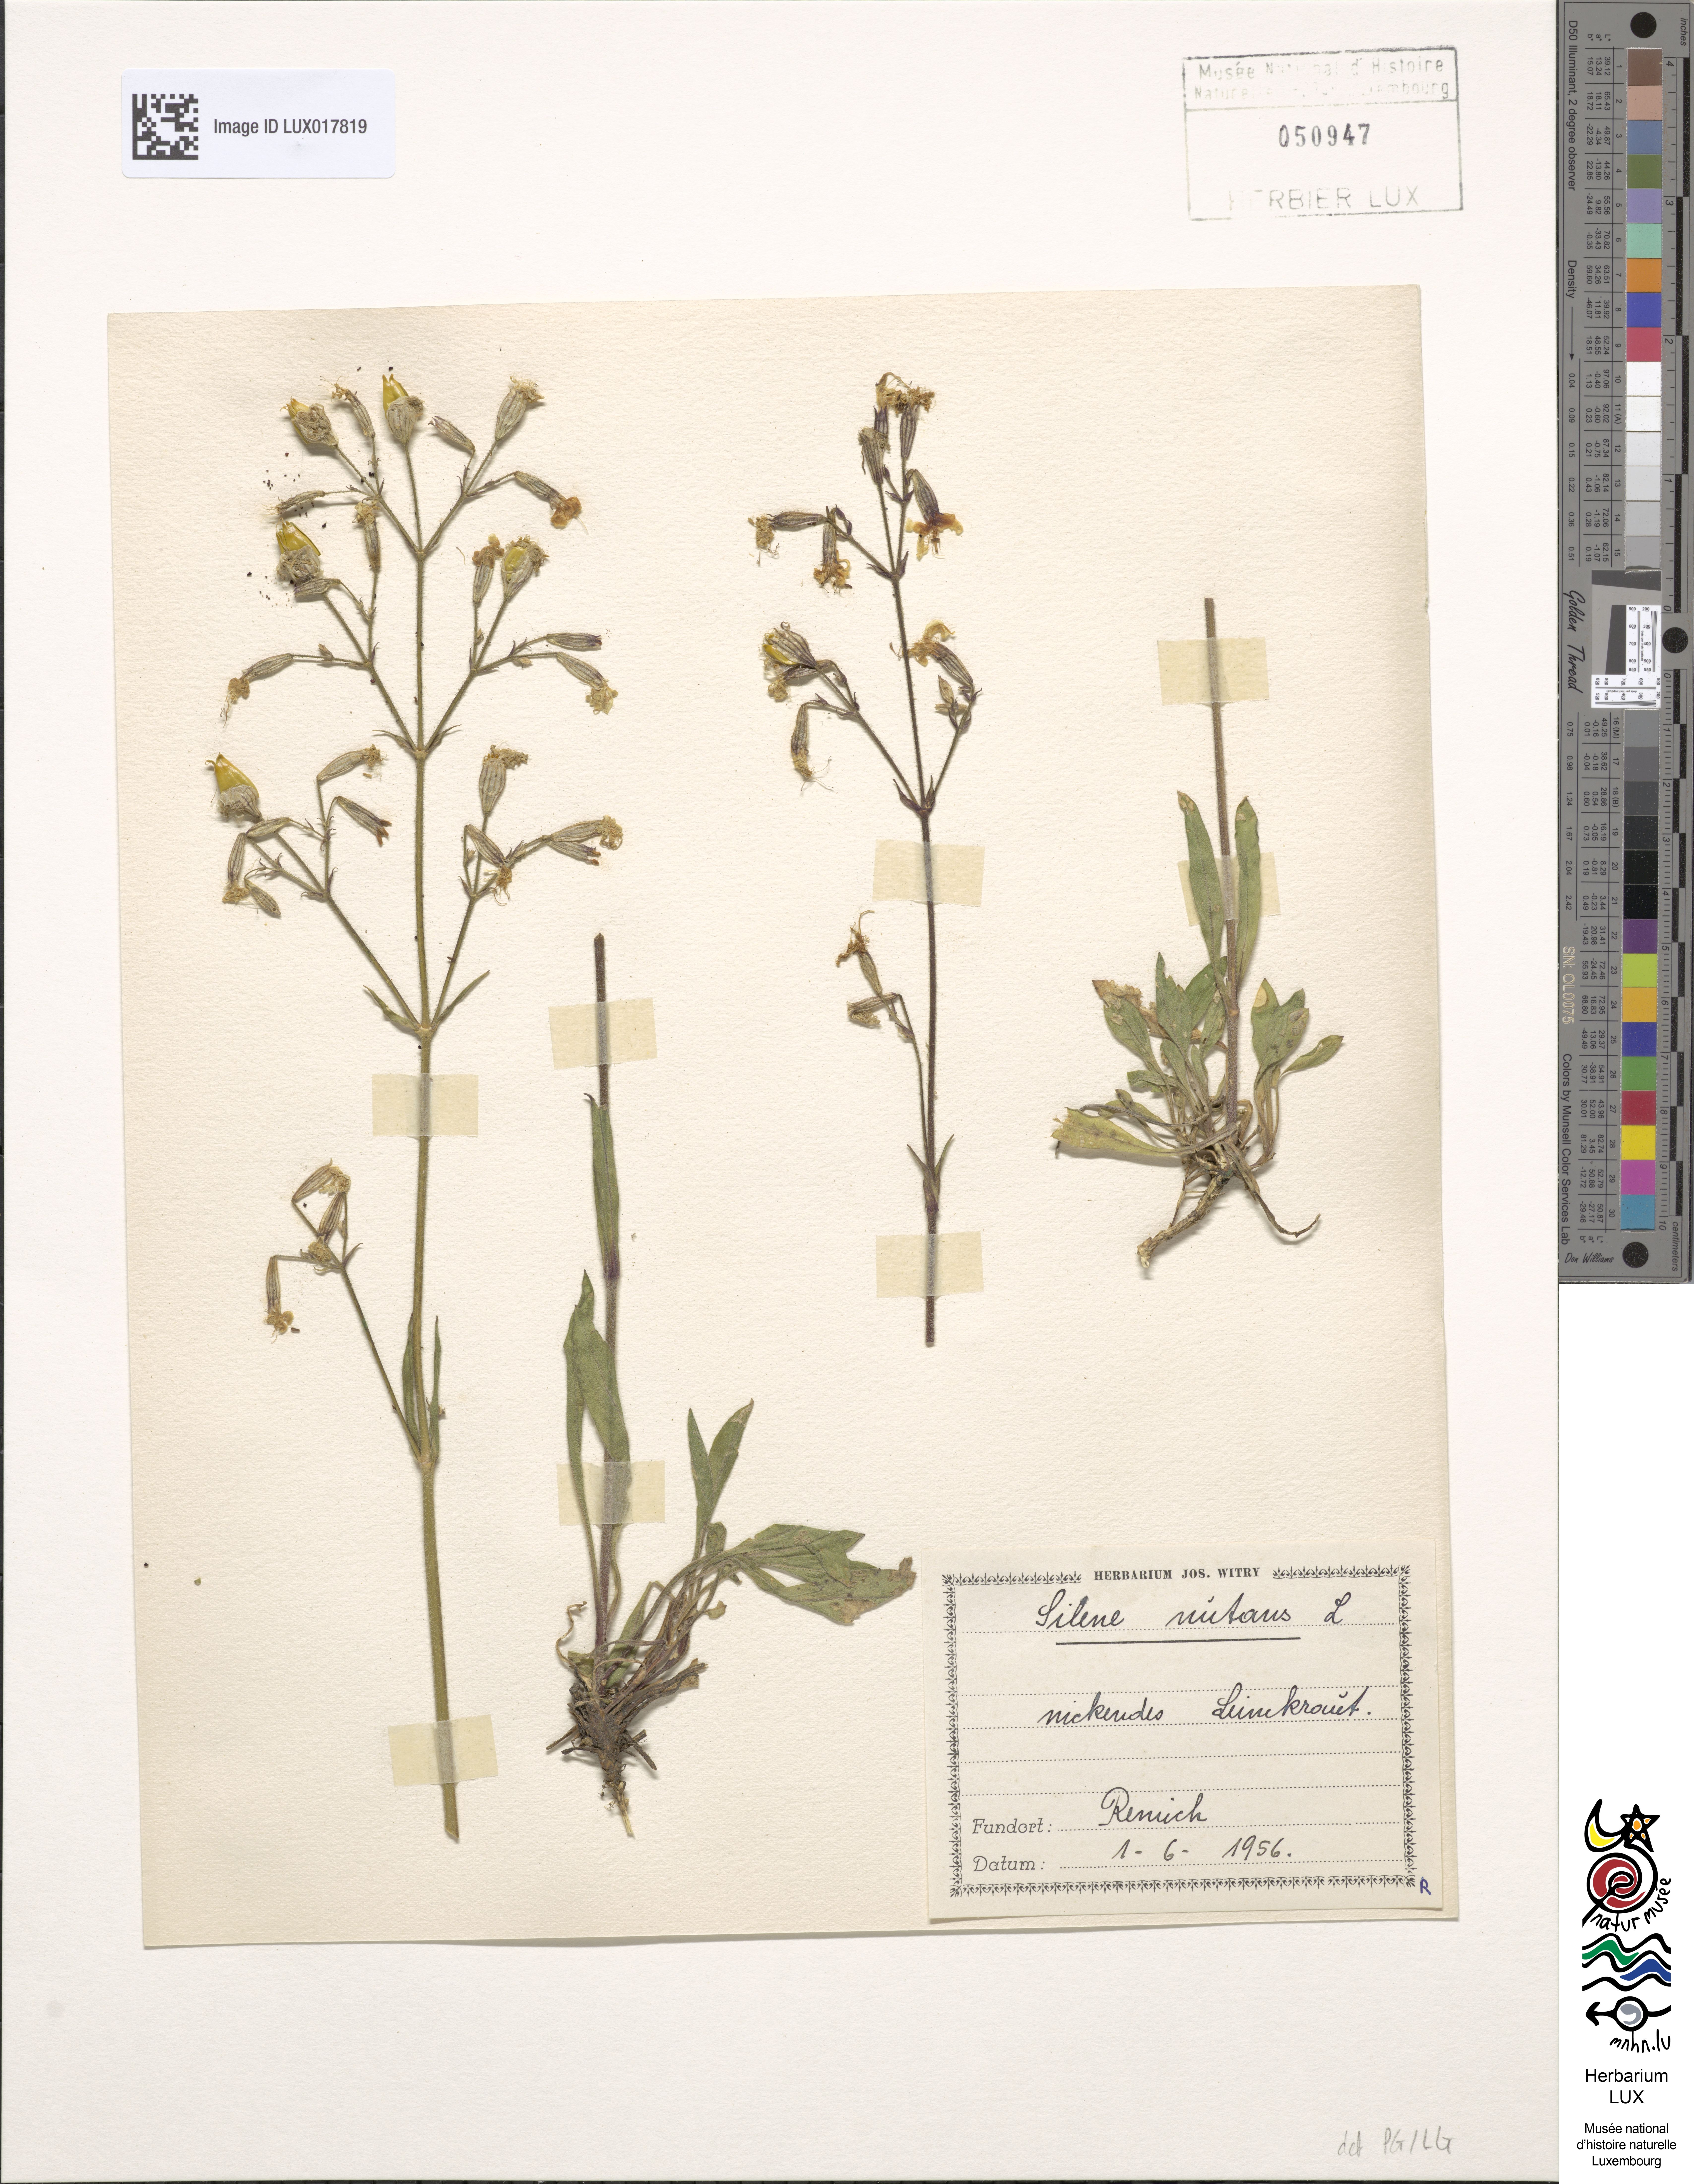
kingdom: Plantae
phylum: Tracheophyta
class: Magnoliopsida
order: Caryophyllales
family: Caryophyllaceae
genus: Silene
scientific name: Silene nutans
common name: Nottingham catchfly
